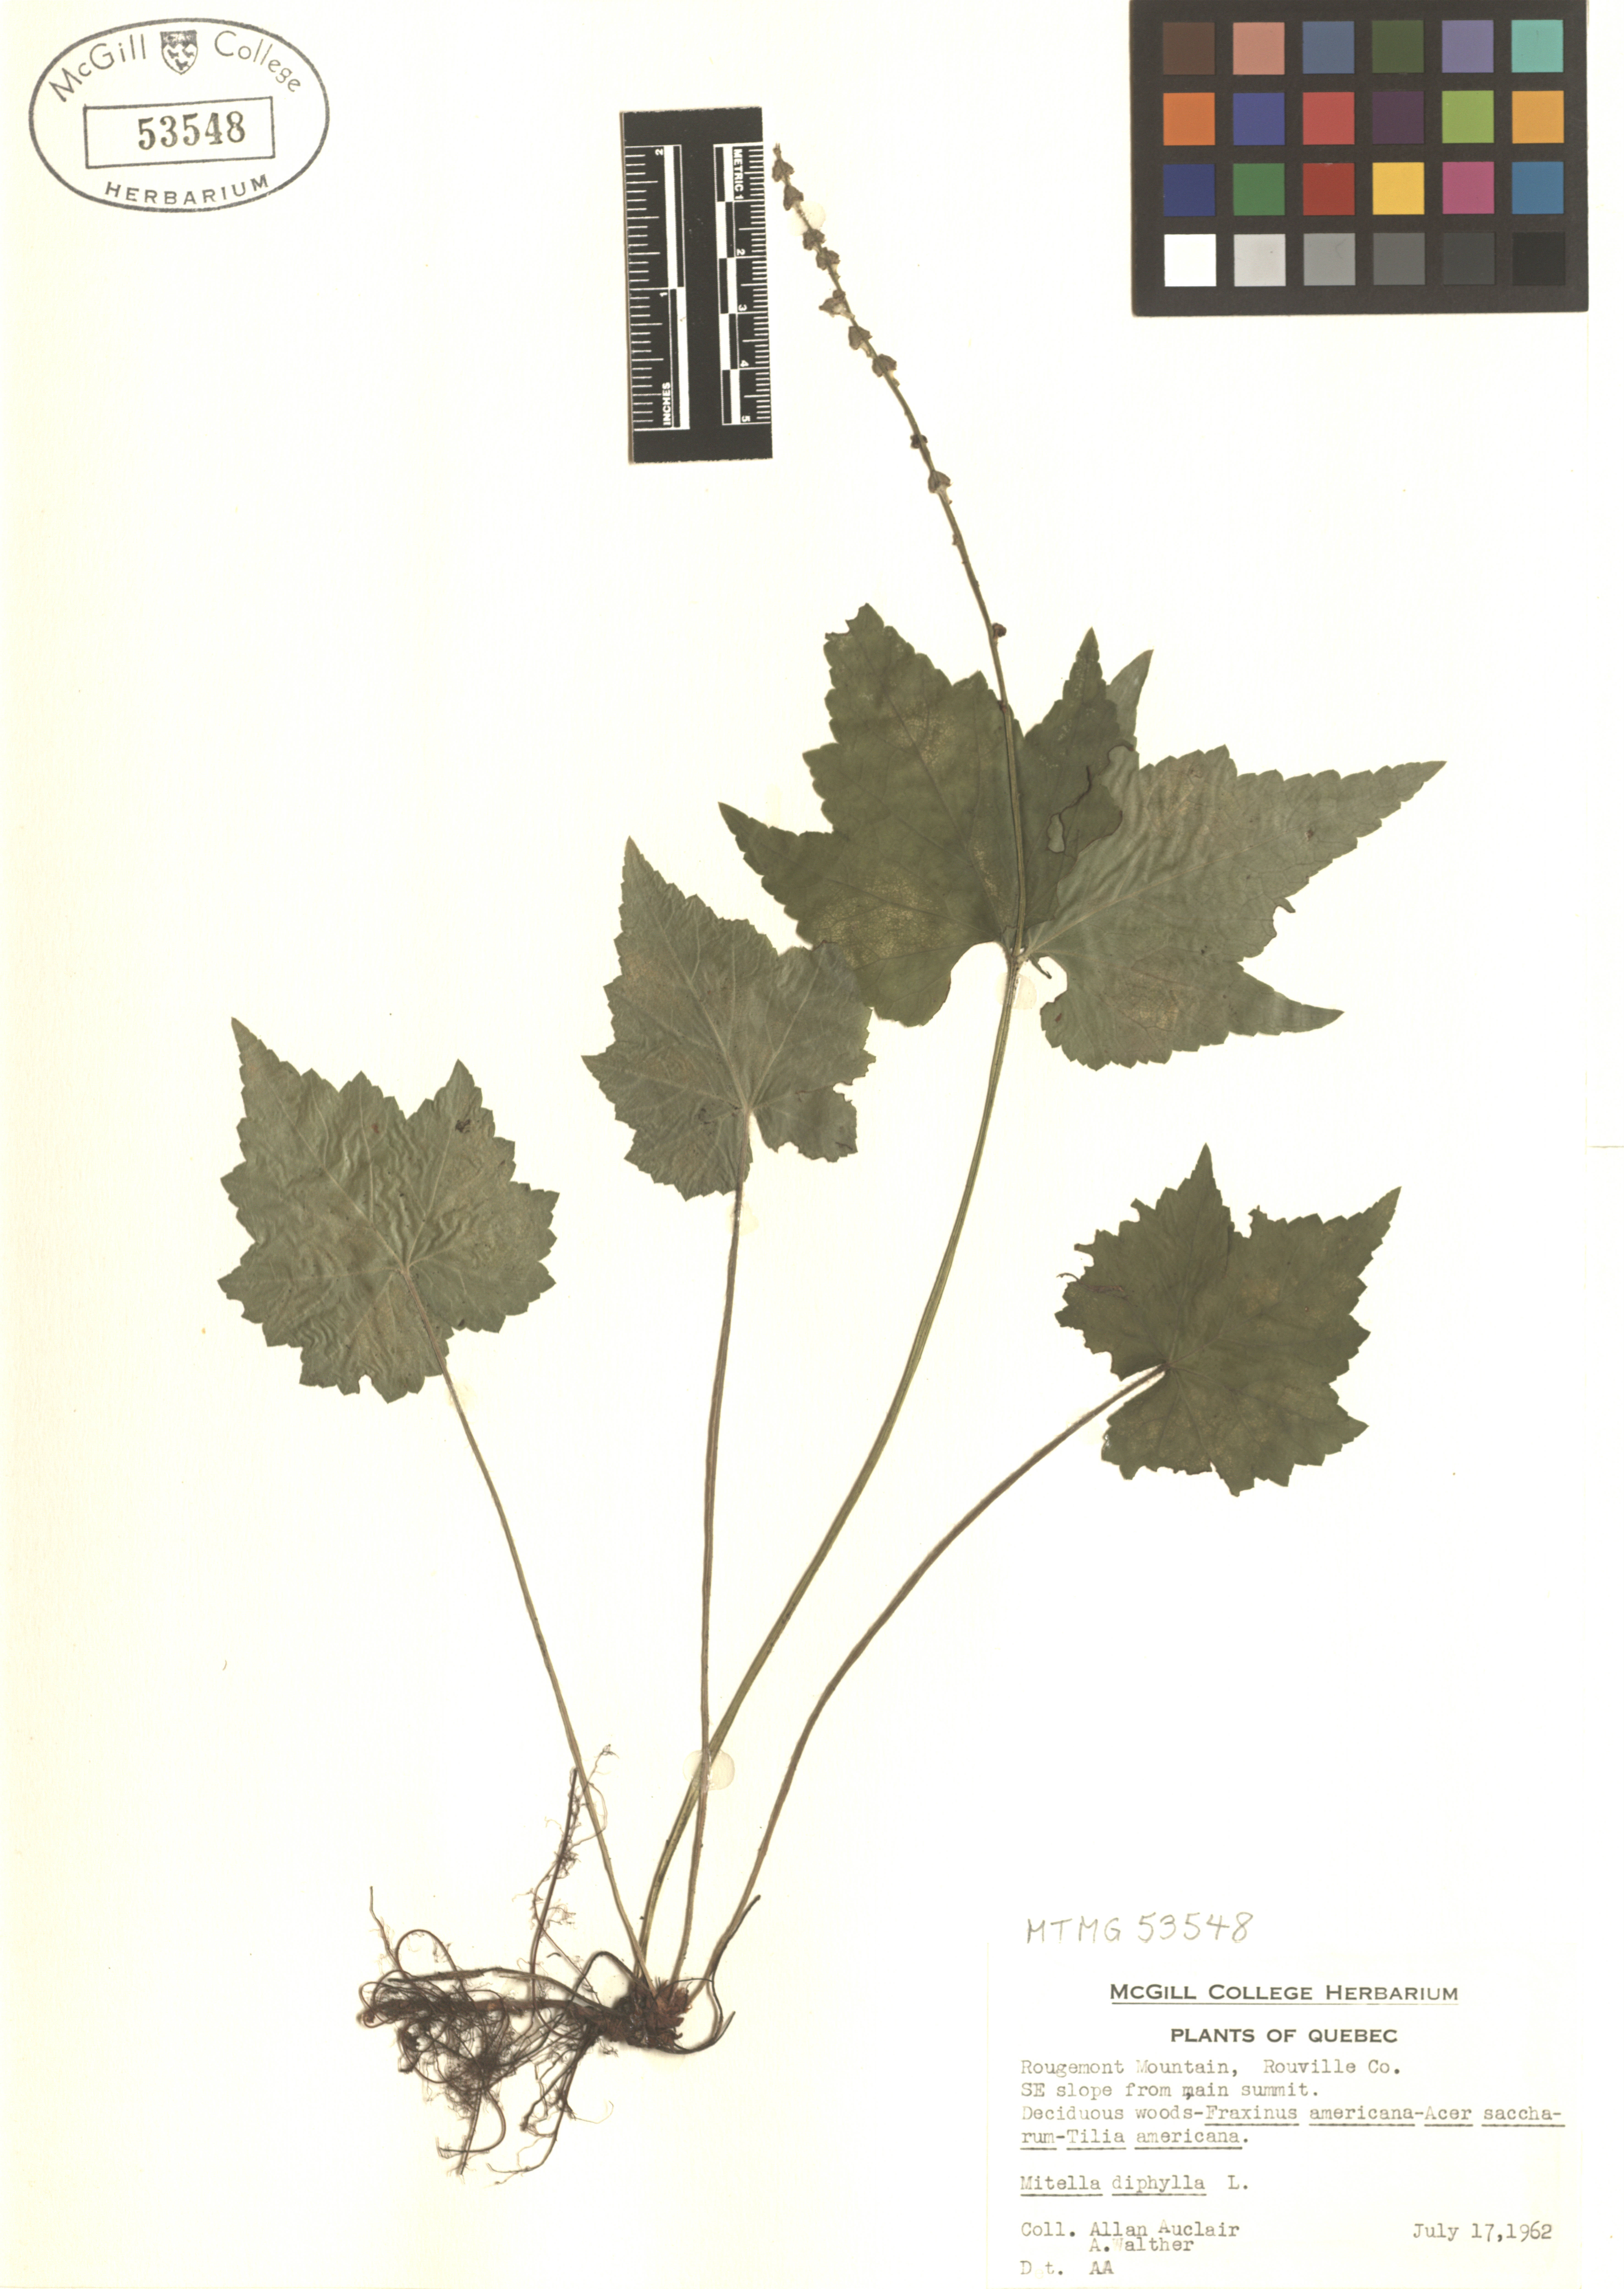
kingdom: Plantae
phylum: Tracheophyta
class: Magnoliopsida
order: Saxifragales
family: Saxifragaceae
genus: Mitella
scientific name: Mitella diphylla
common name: Coolwort
